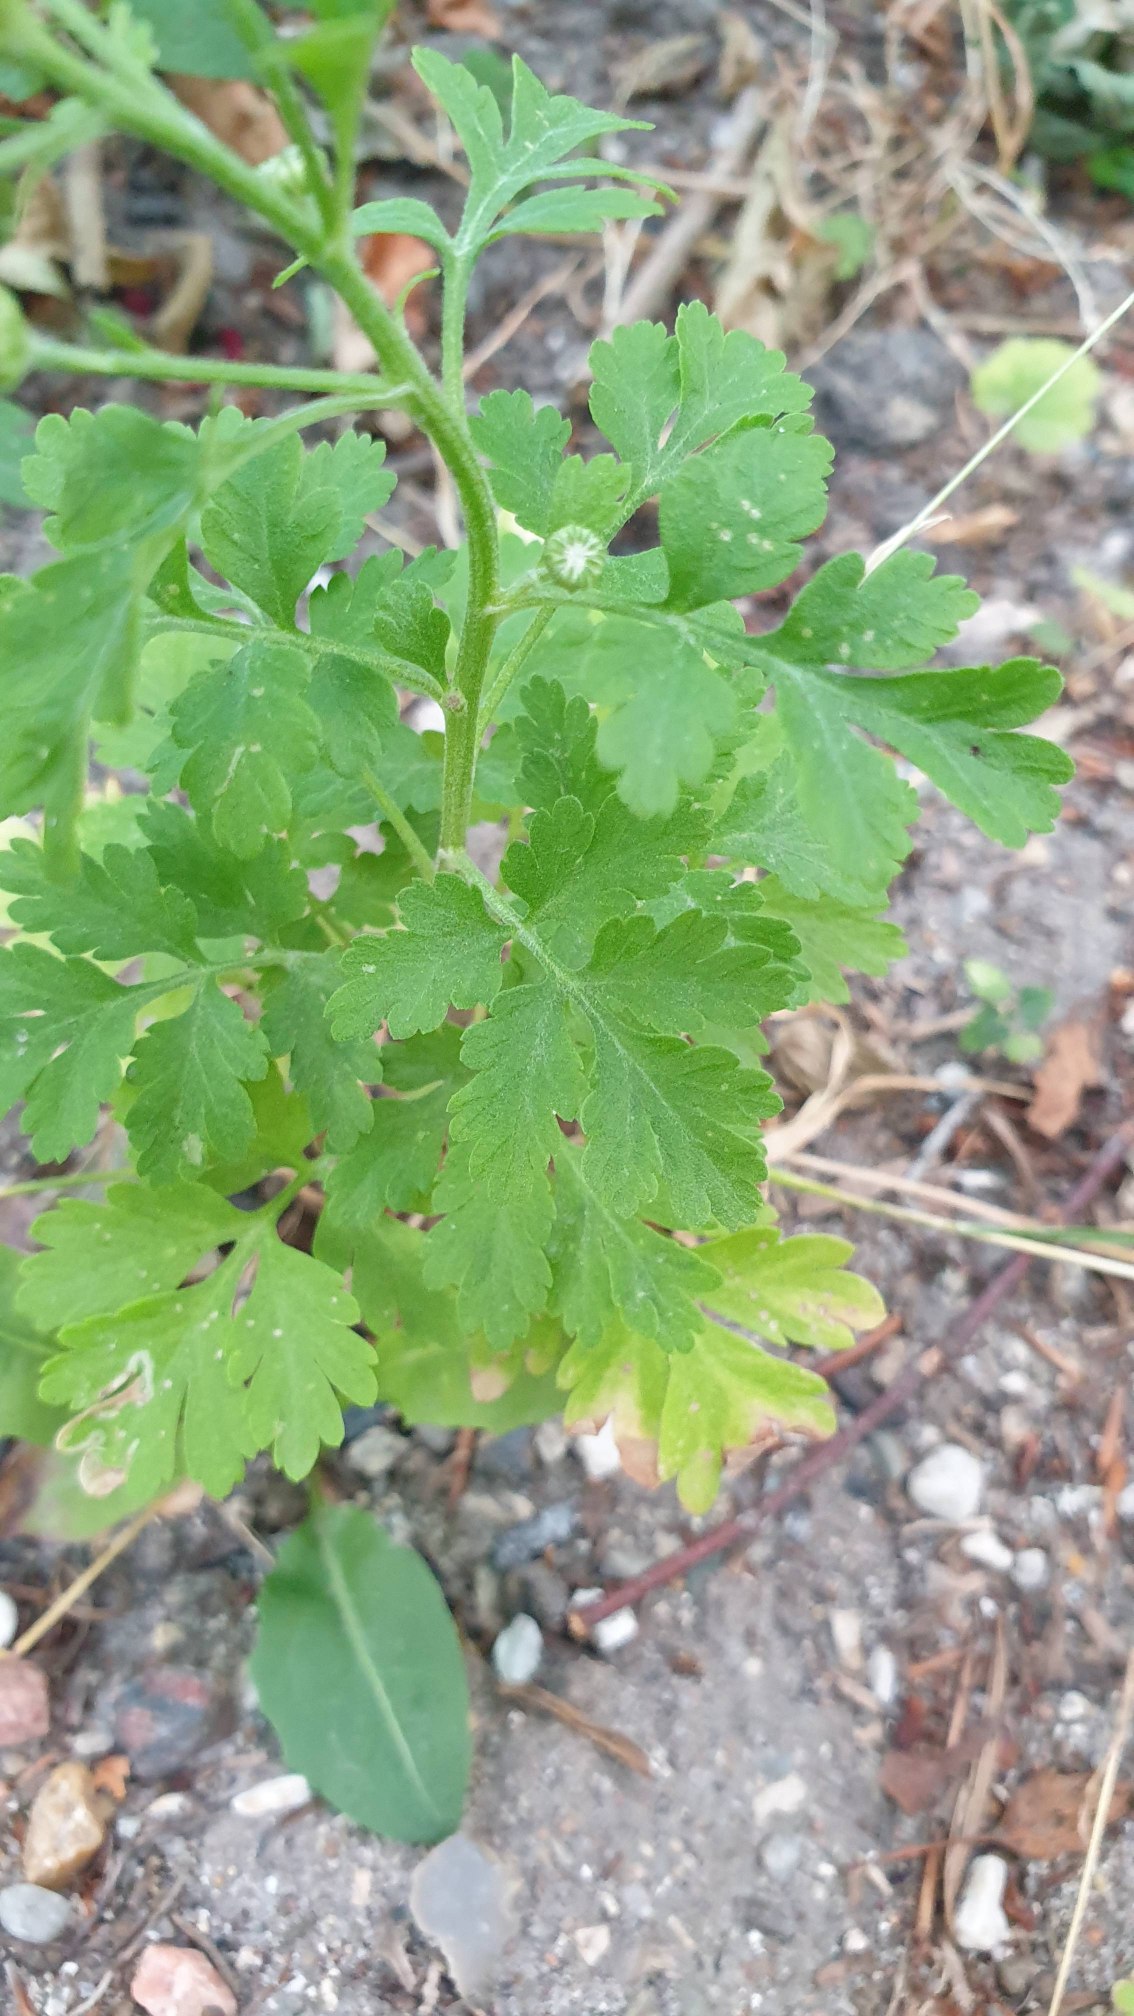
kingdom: Plantae
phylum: Tracheophyta
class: Magnoliopsida
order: Asterales
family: Asteraceae
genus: Tanacetum
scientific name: Tanacetum parthenium
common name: Matrem
